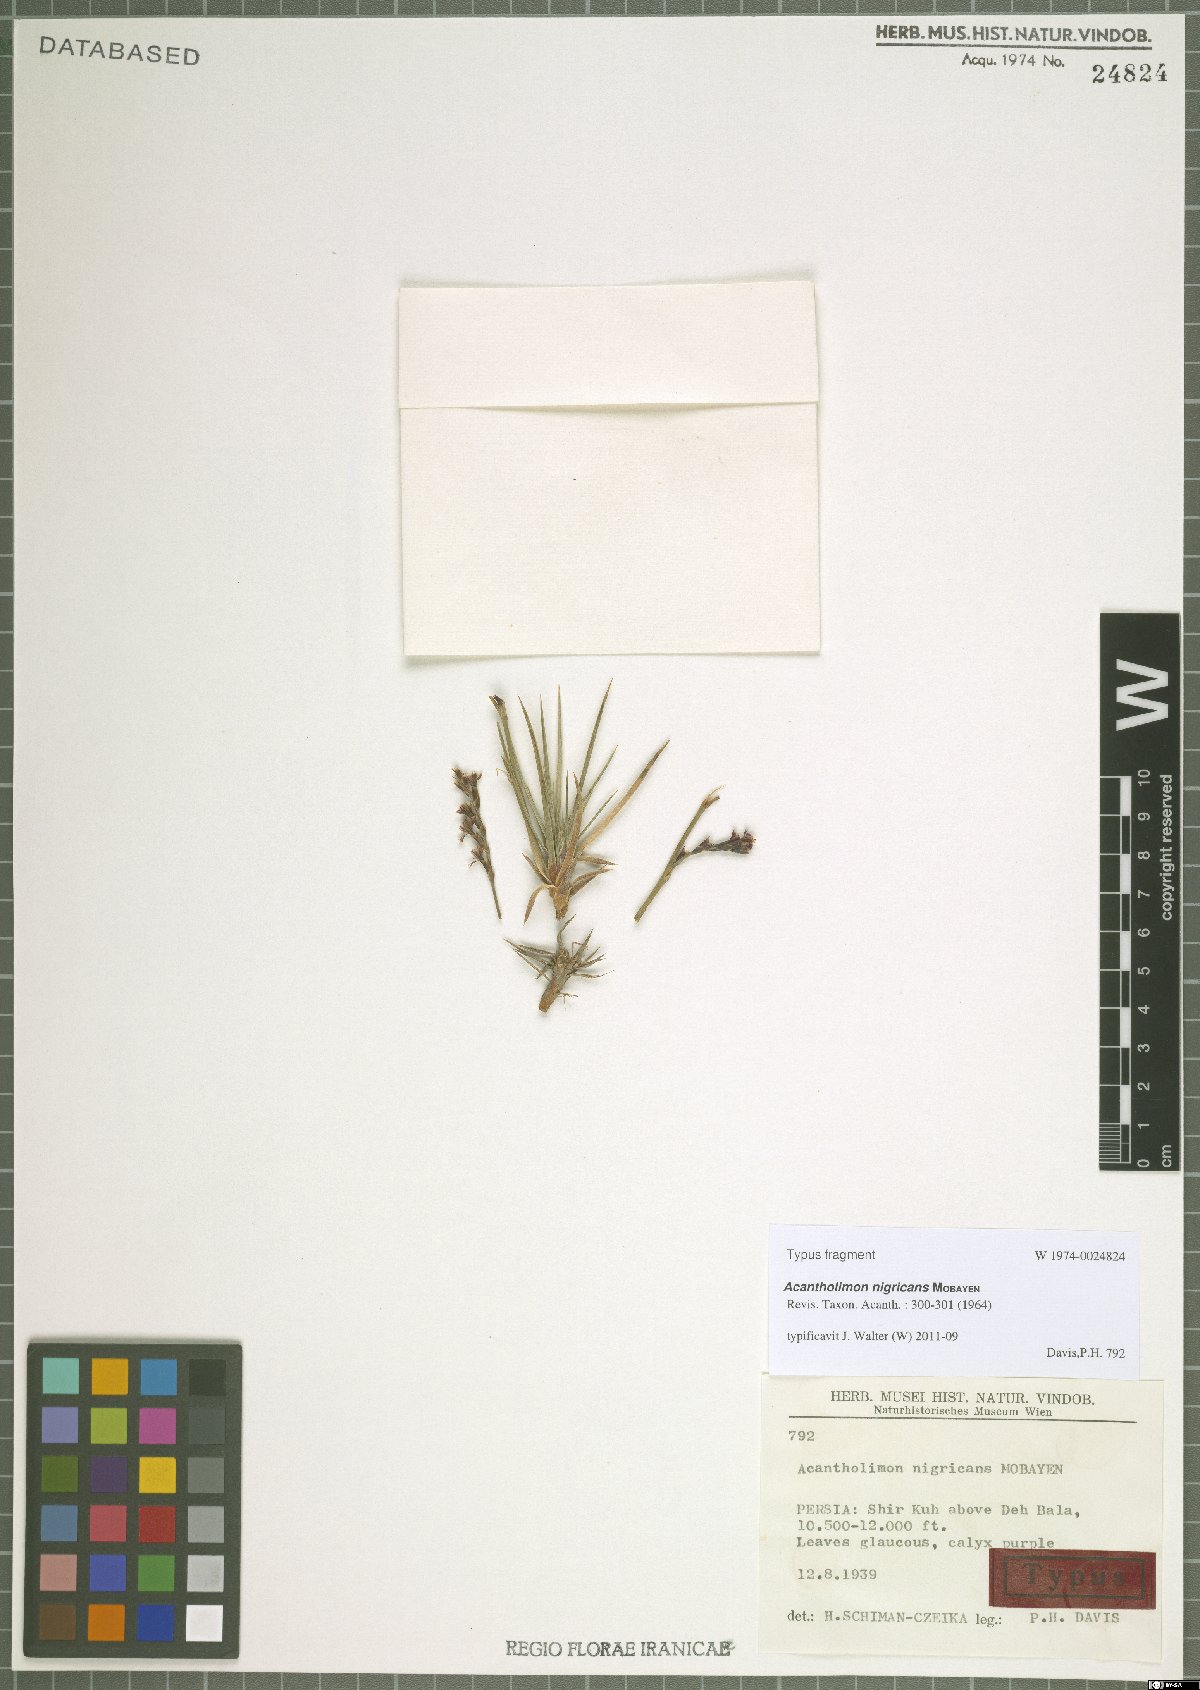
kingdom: Plantae
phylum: Tracheophyta
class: Magnoliopsida
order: Caryophyllales
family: Plumbaginaceae
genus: Acantholimon
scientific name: Acantholimon nigricans
